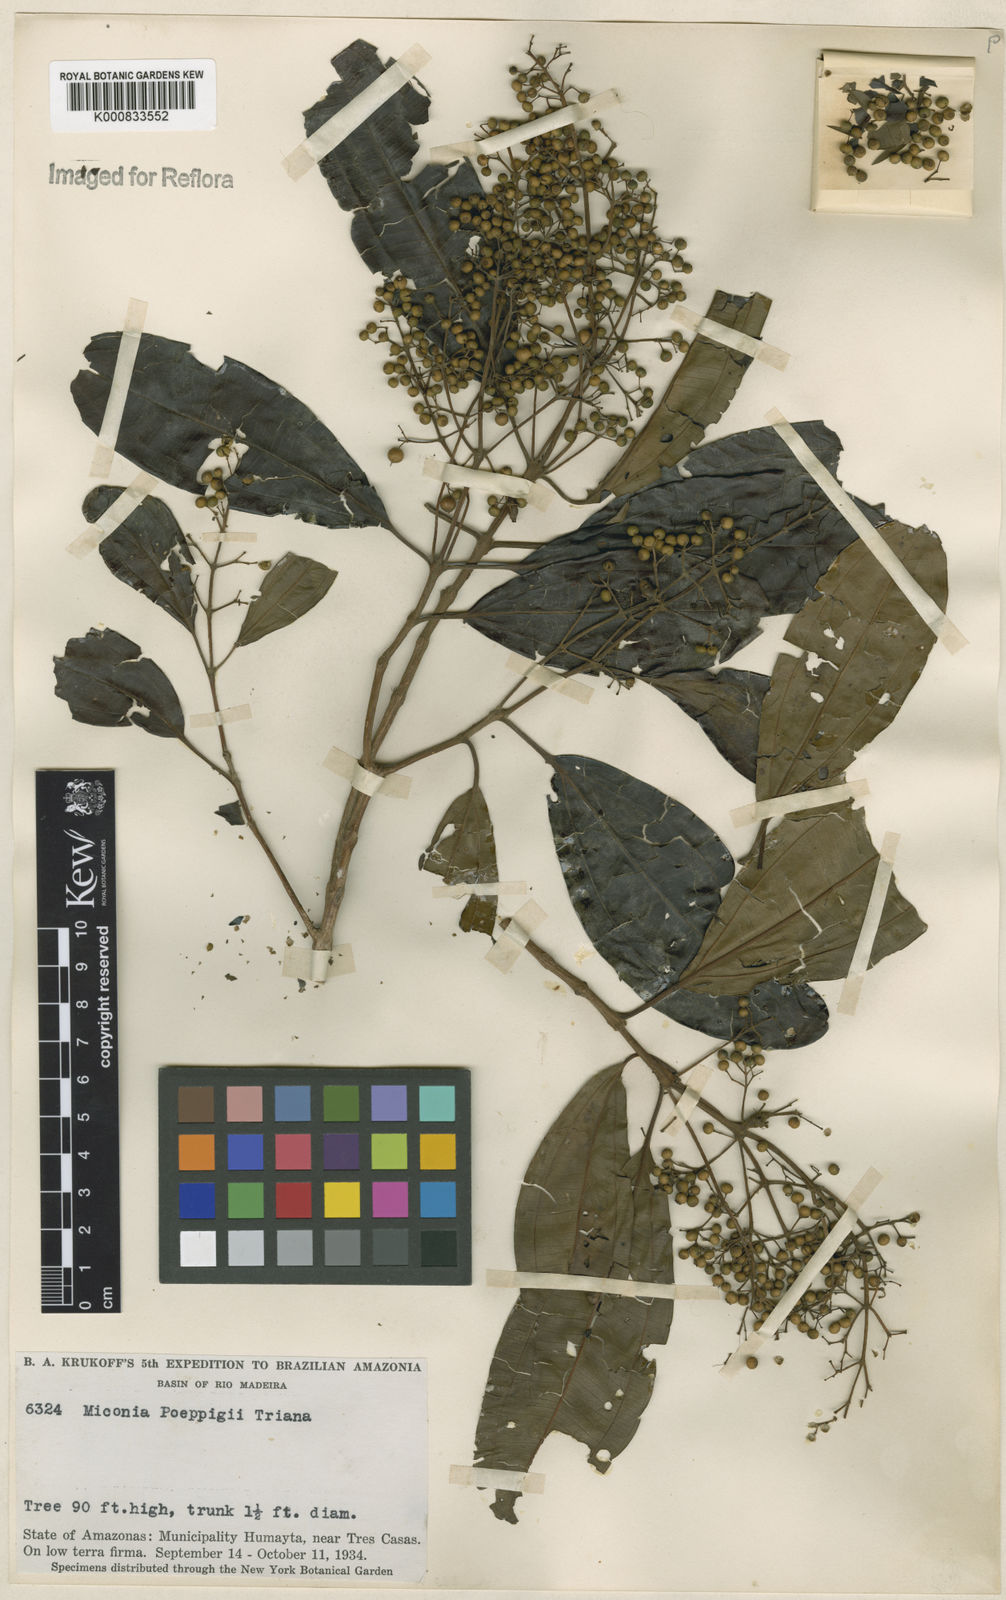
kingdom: Plantae
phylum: Tracheophyta
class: Magnoliopsida
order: Myrtales
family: Melastomataceae
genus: Miconia
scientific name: Miconia poeppigii
